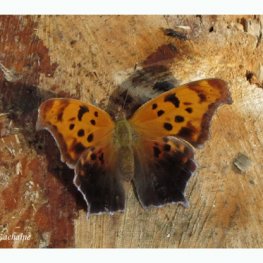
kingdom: Animalia
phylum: Arthropoda
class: Insecta
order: Lepidoptera
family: Nymphalidae
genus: Polygonia
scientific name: Polygonia interrogationis
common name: Question Mark
